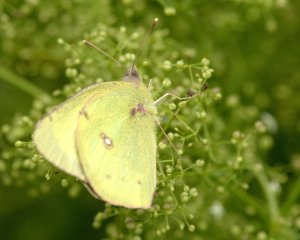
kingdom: Animalia
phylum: Arthropoda
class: Insecta
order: Lepidoptera
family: Pieridae
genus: Colias
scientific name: Colias philodice
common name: Clouded Sulphur
